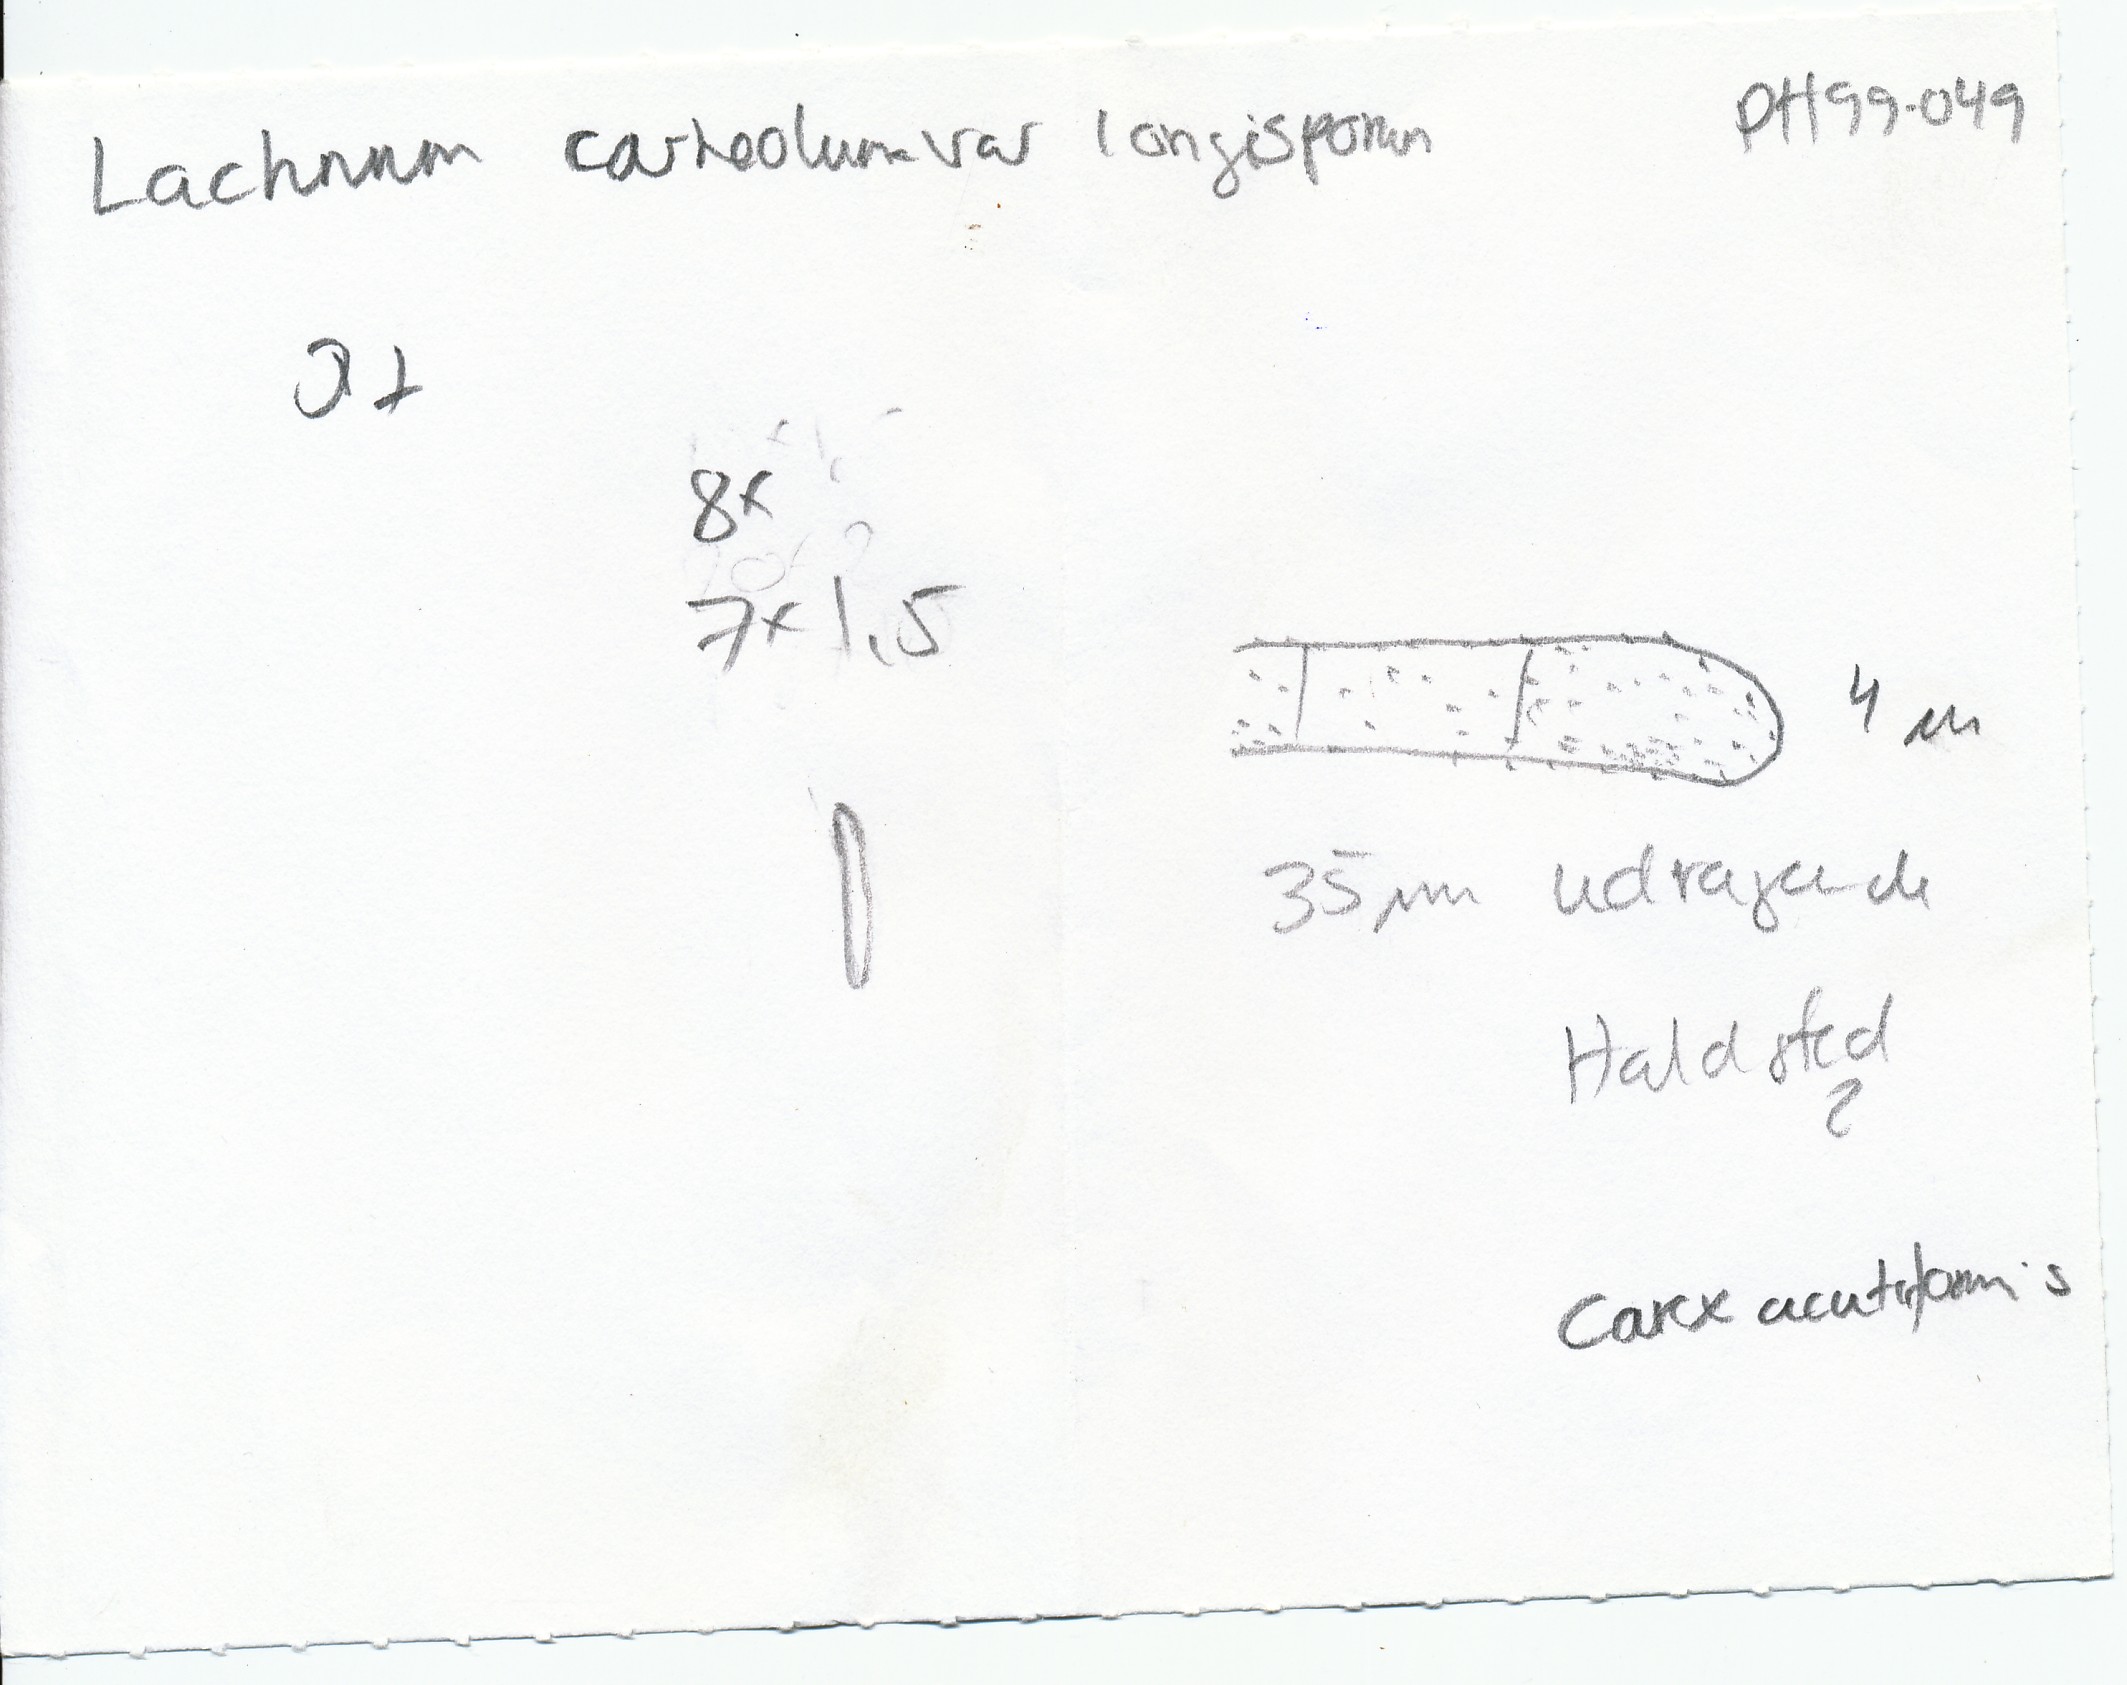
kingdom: Fungi
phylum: Ascomycota
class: Leotiomycetes
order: Helotiales
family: Lachnaceae
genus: Lachnum
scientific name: Lachnum tenuipilosum
